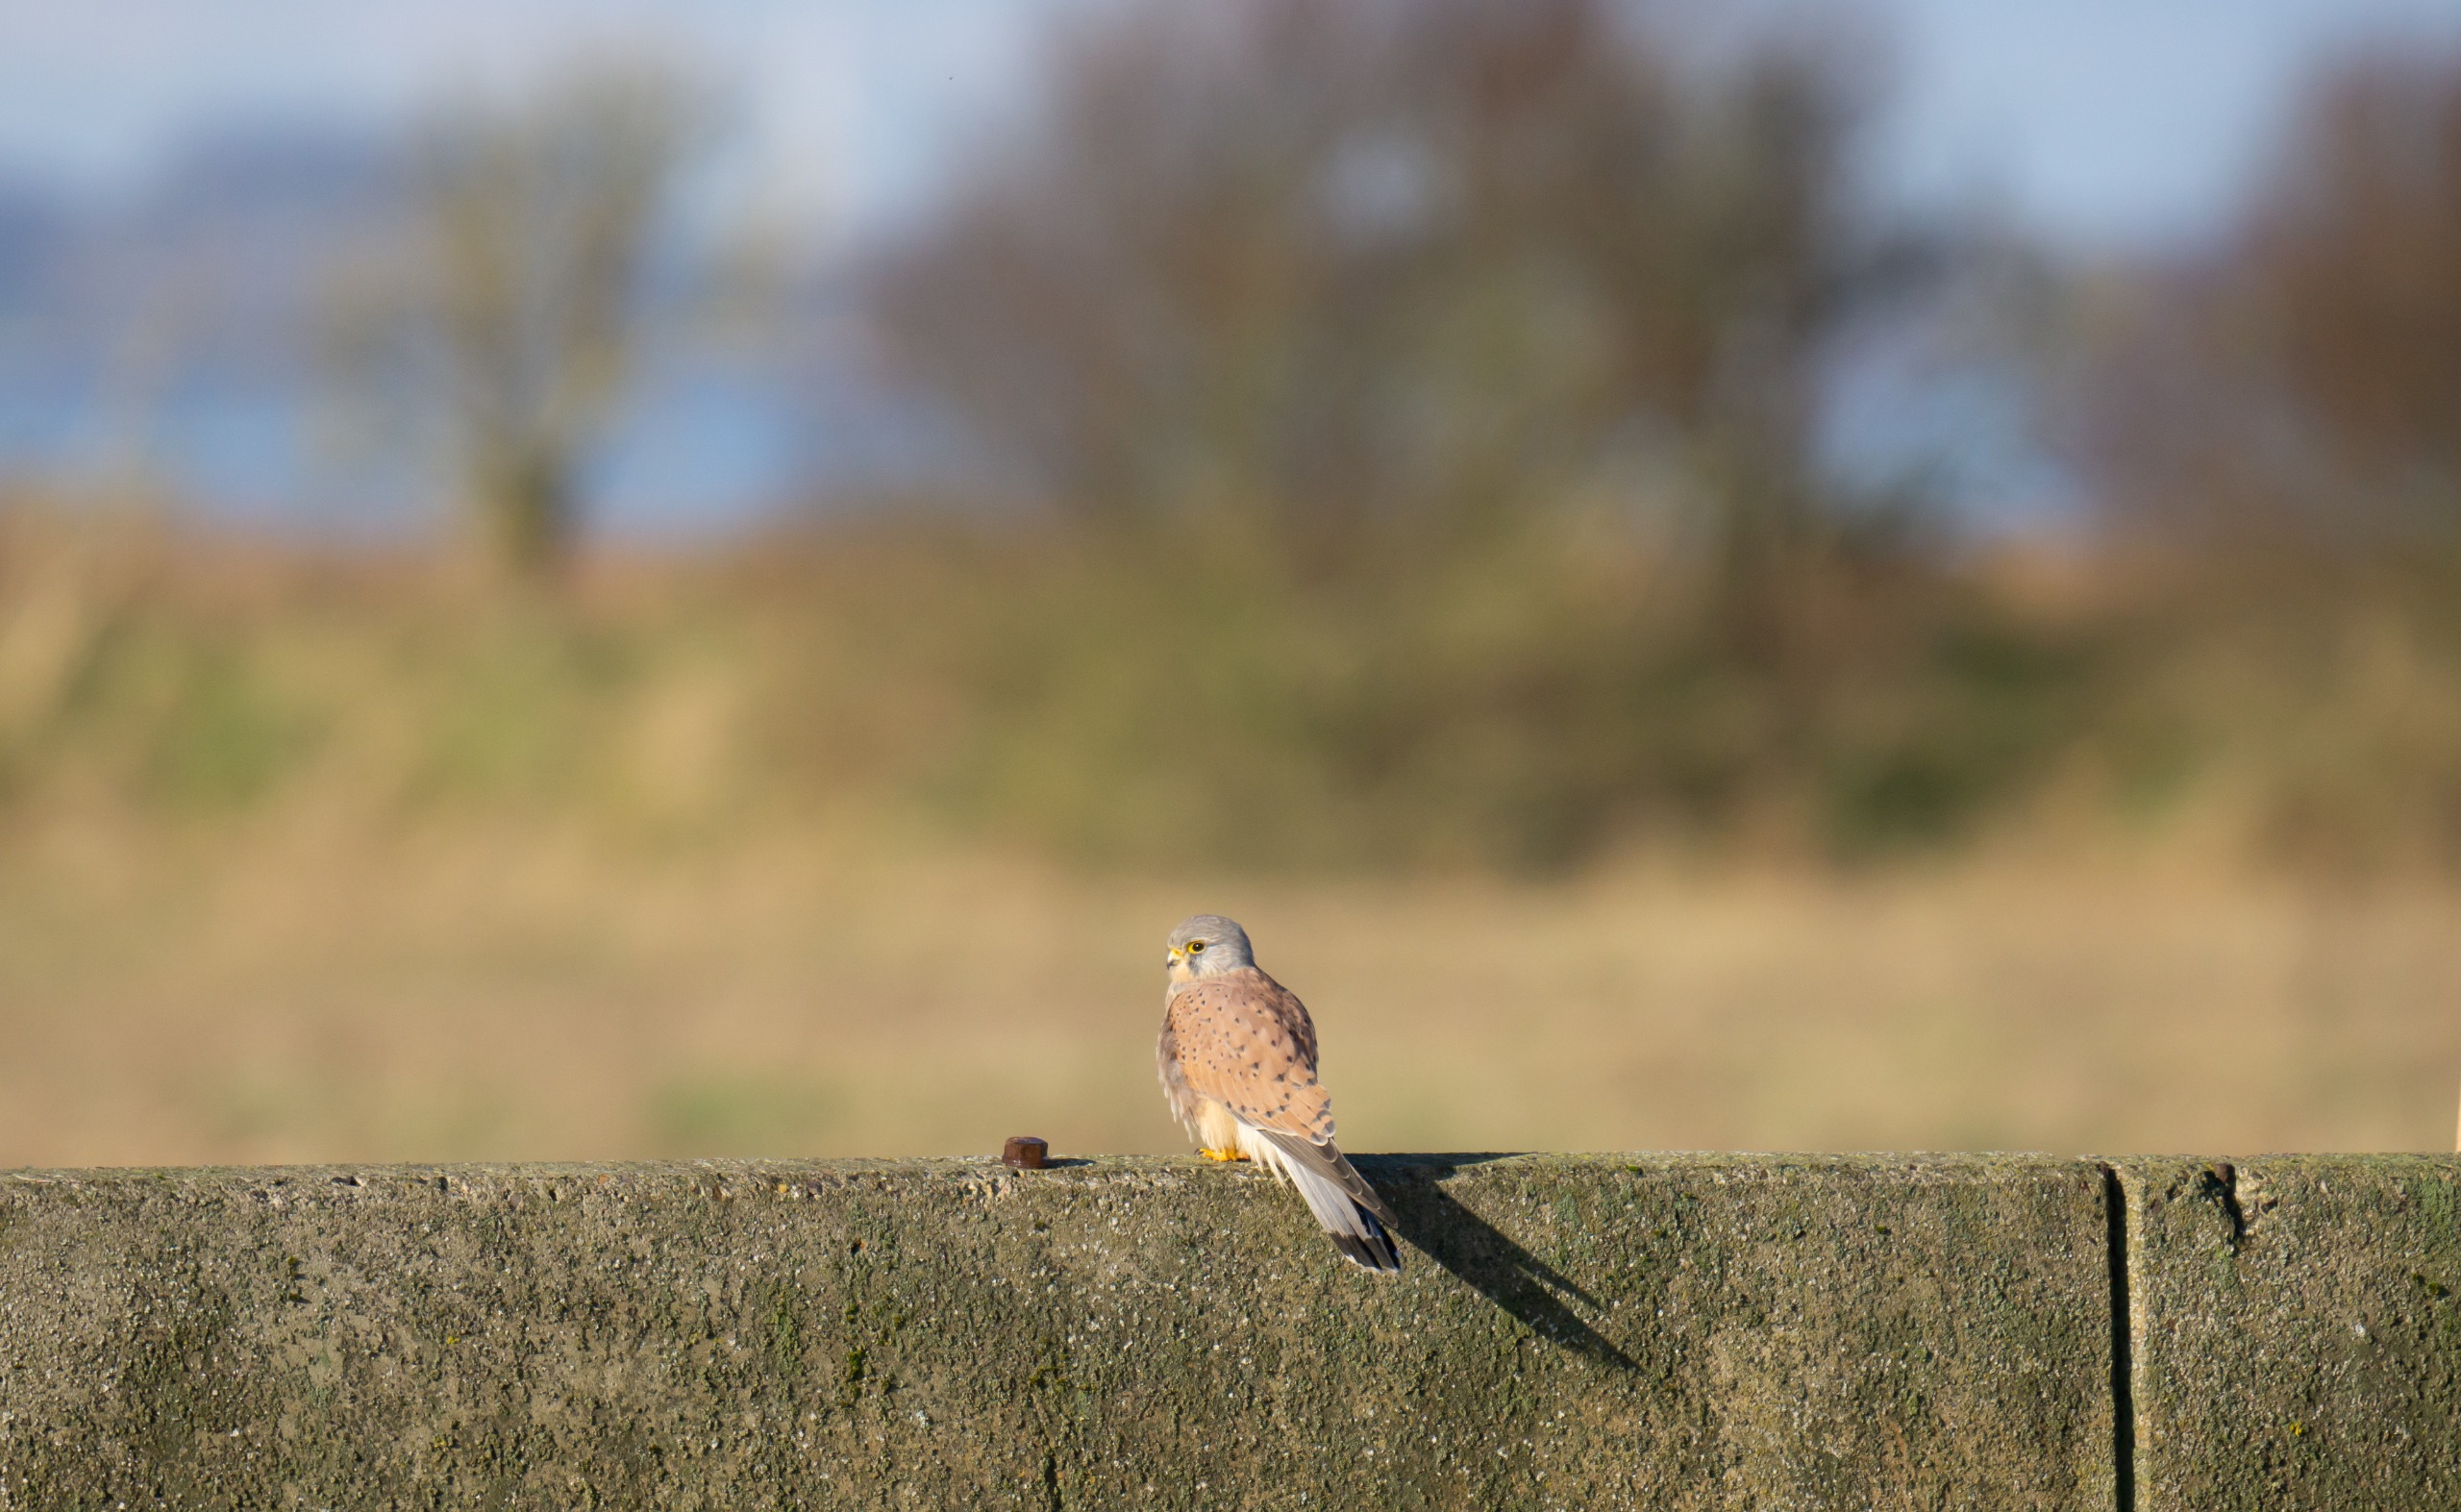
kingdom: Animalia
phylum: Chordata
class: Aves
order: Falconiformes
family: Falconidae
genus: Falco
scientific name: Falco tinnunculus
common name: Tårnfalk
